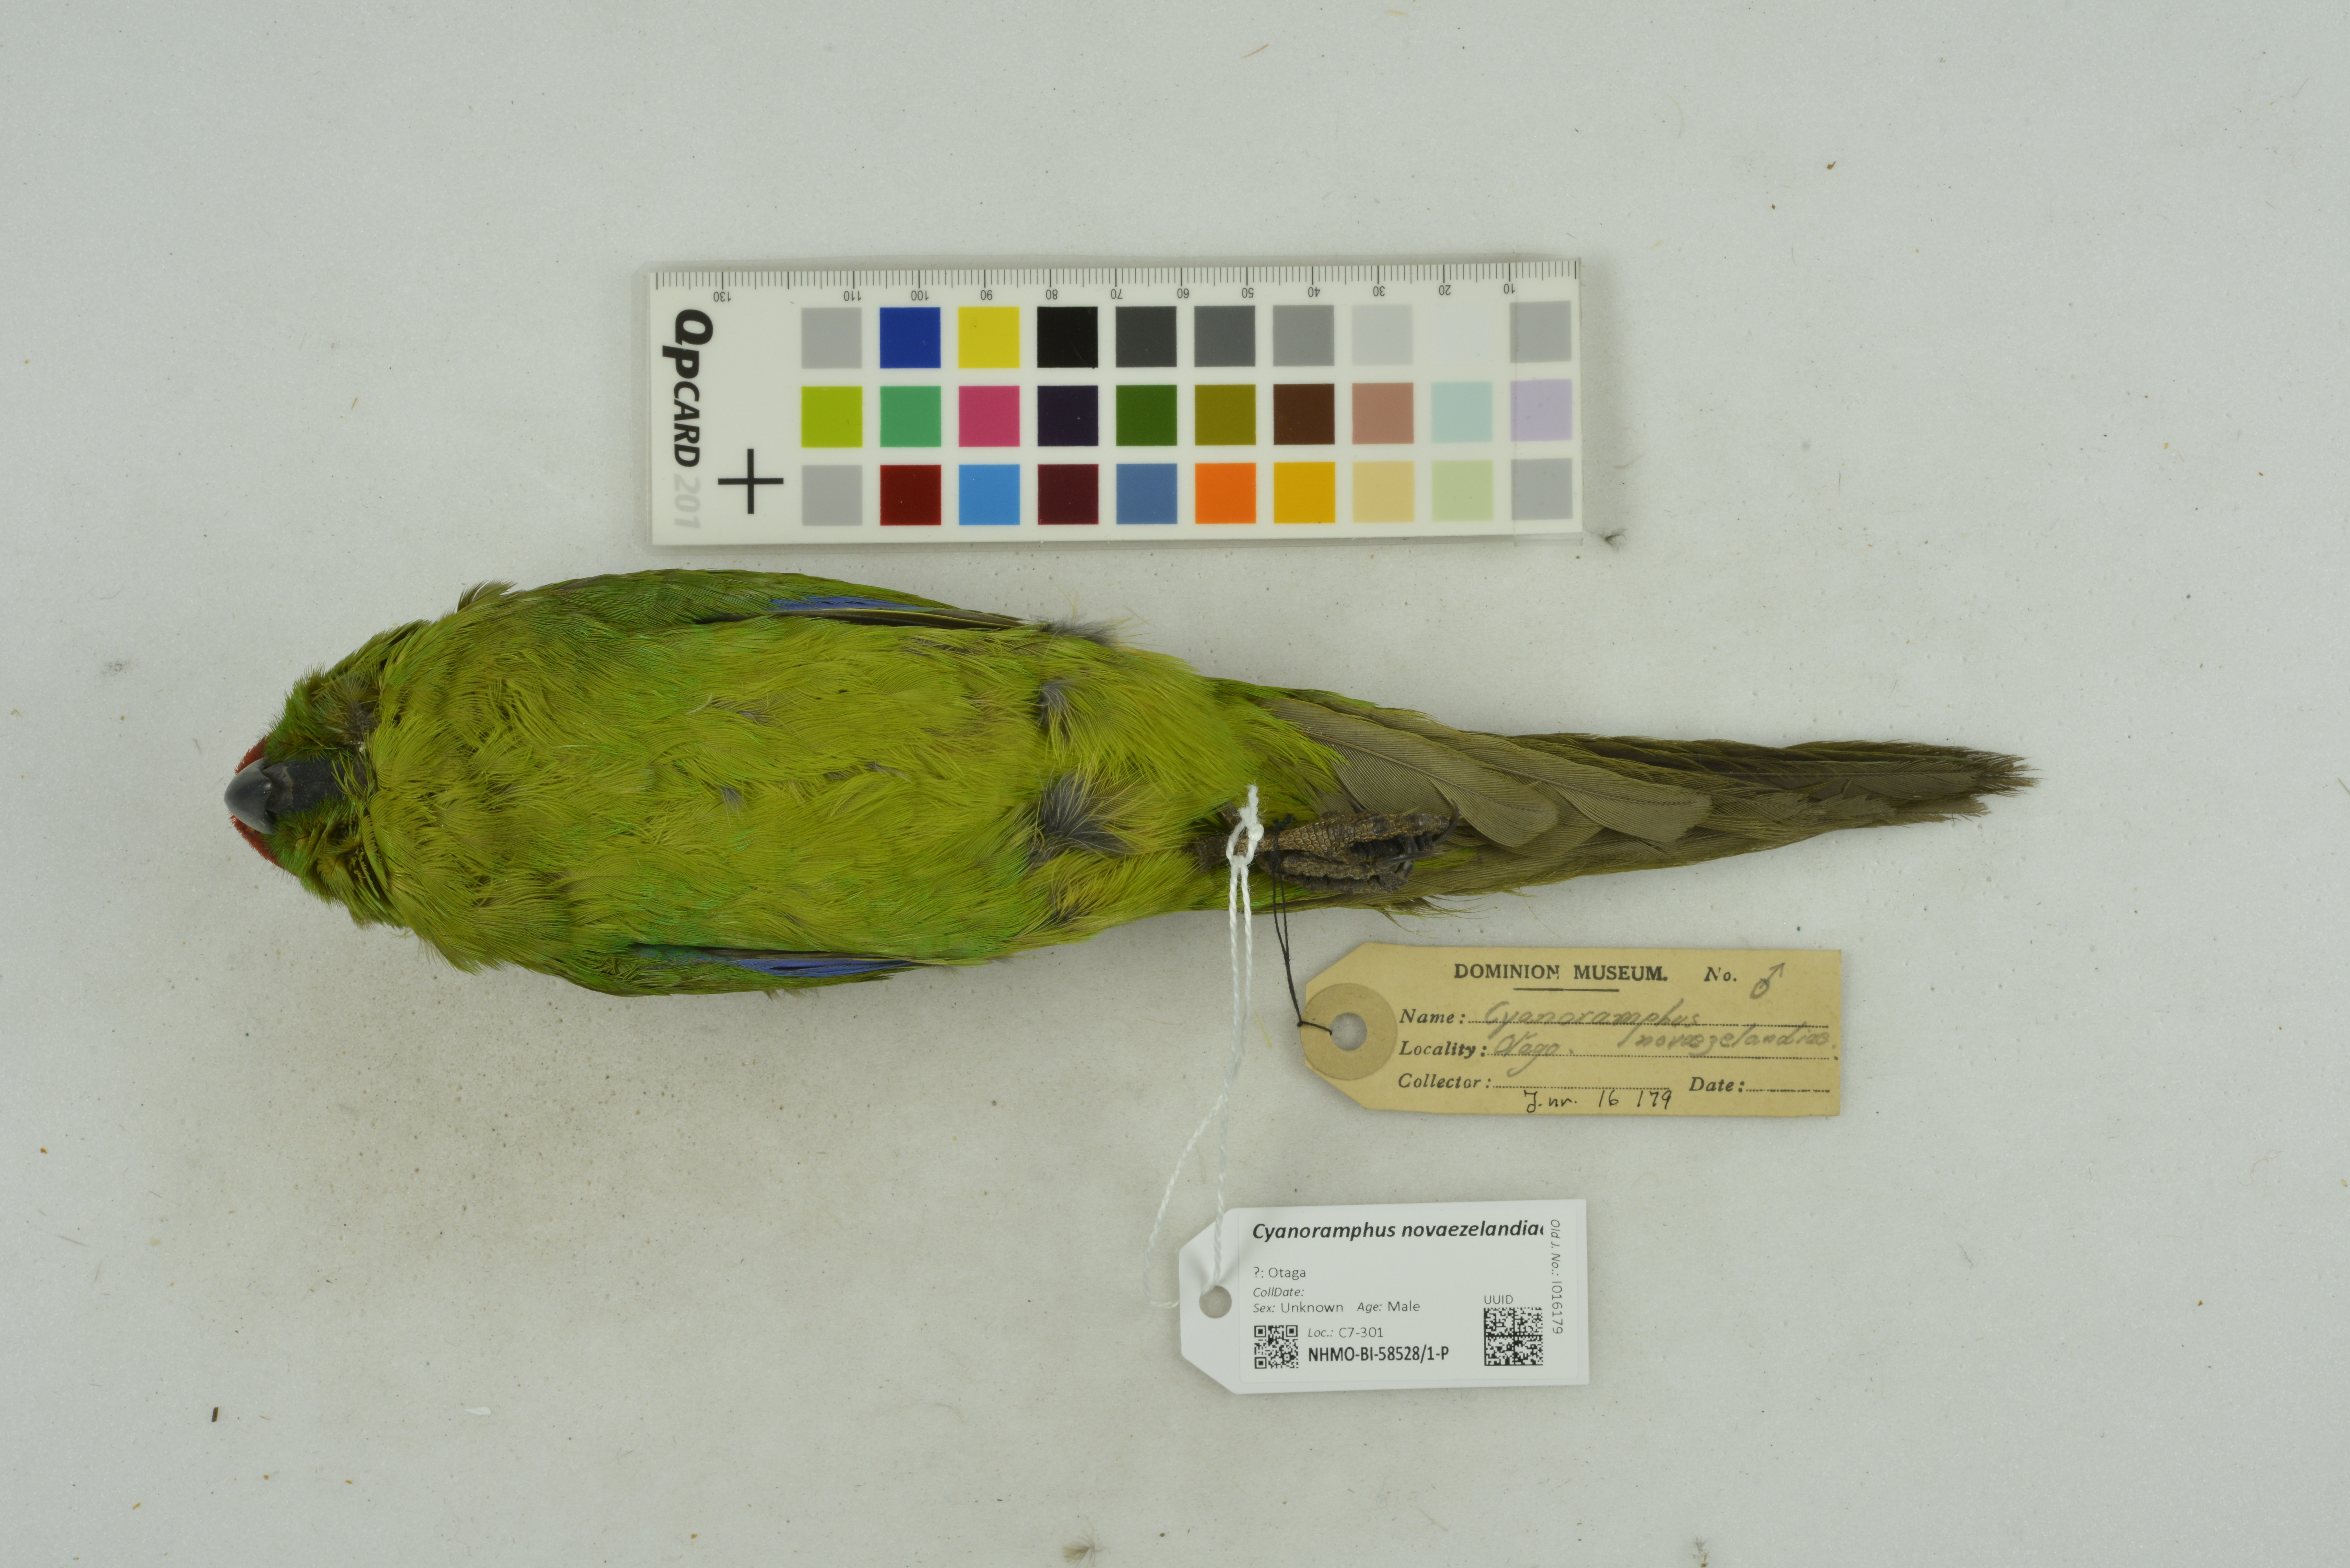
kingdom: Animalia
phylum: Chordata
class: Aves
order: Psittaciformes
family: Psittacidae
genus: Cyanoramphus
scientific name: Cyanoramphus novaezelandiae
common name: Red-fronted parakeet
